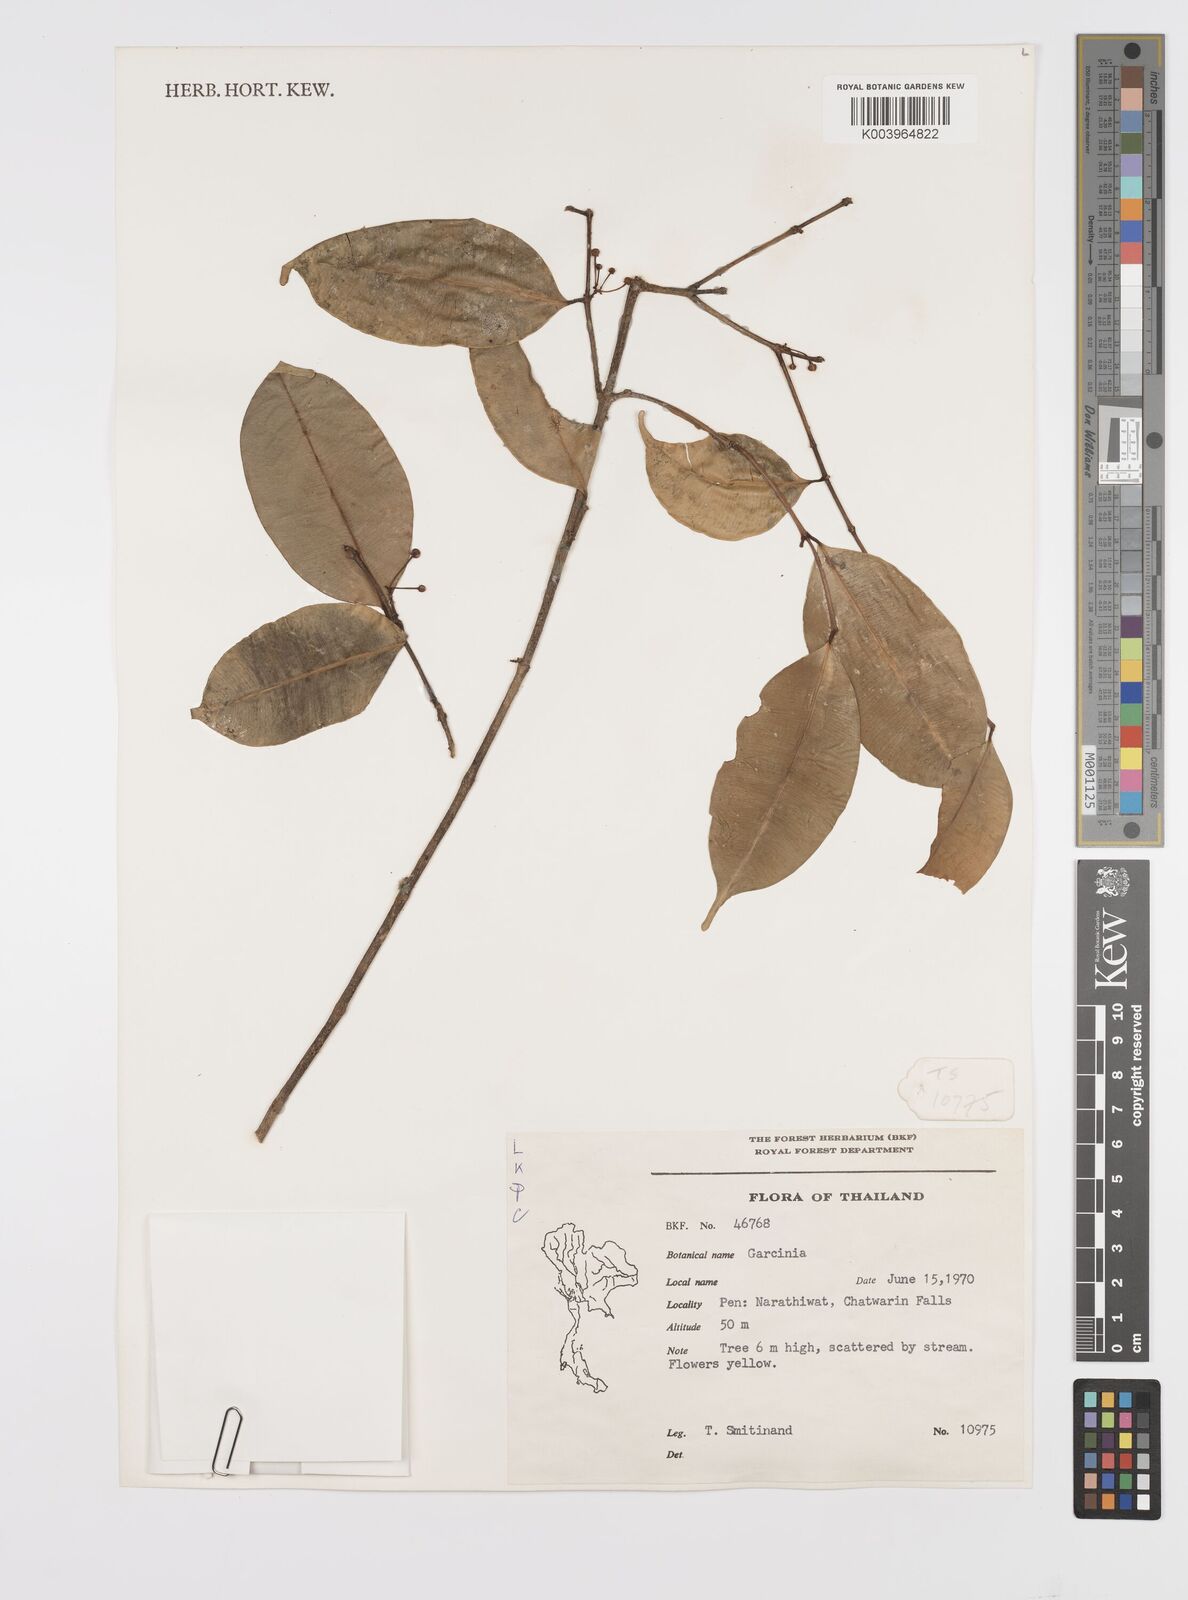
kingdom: Plantae
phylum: Tracheophyta
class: Magnoliopsida
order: Malpighiales
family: Clusiaceae
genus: Garcinia
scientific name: Garcinia
